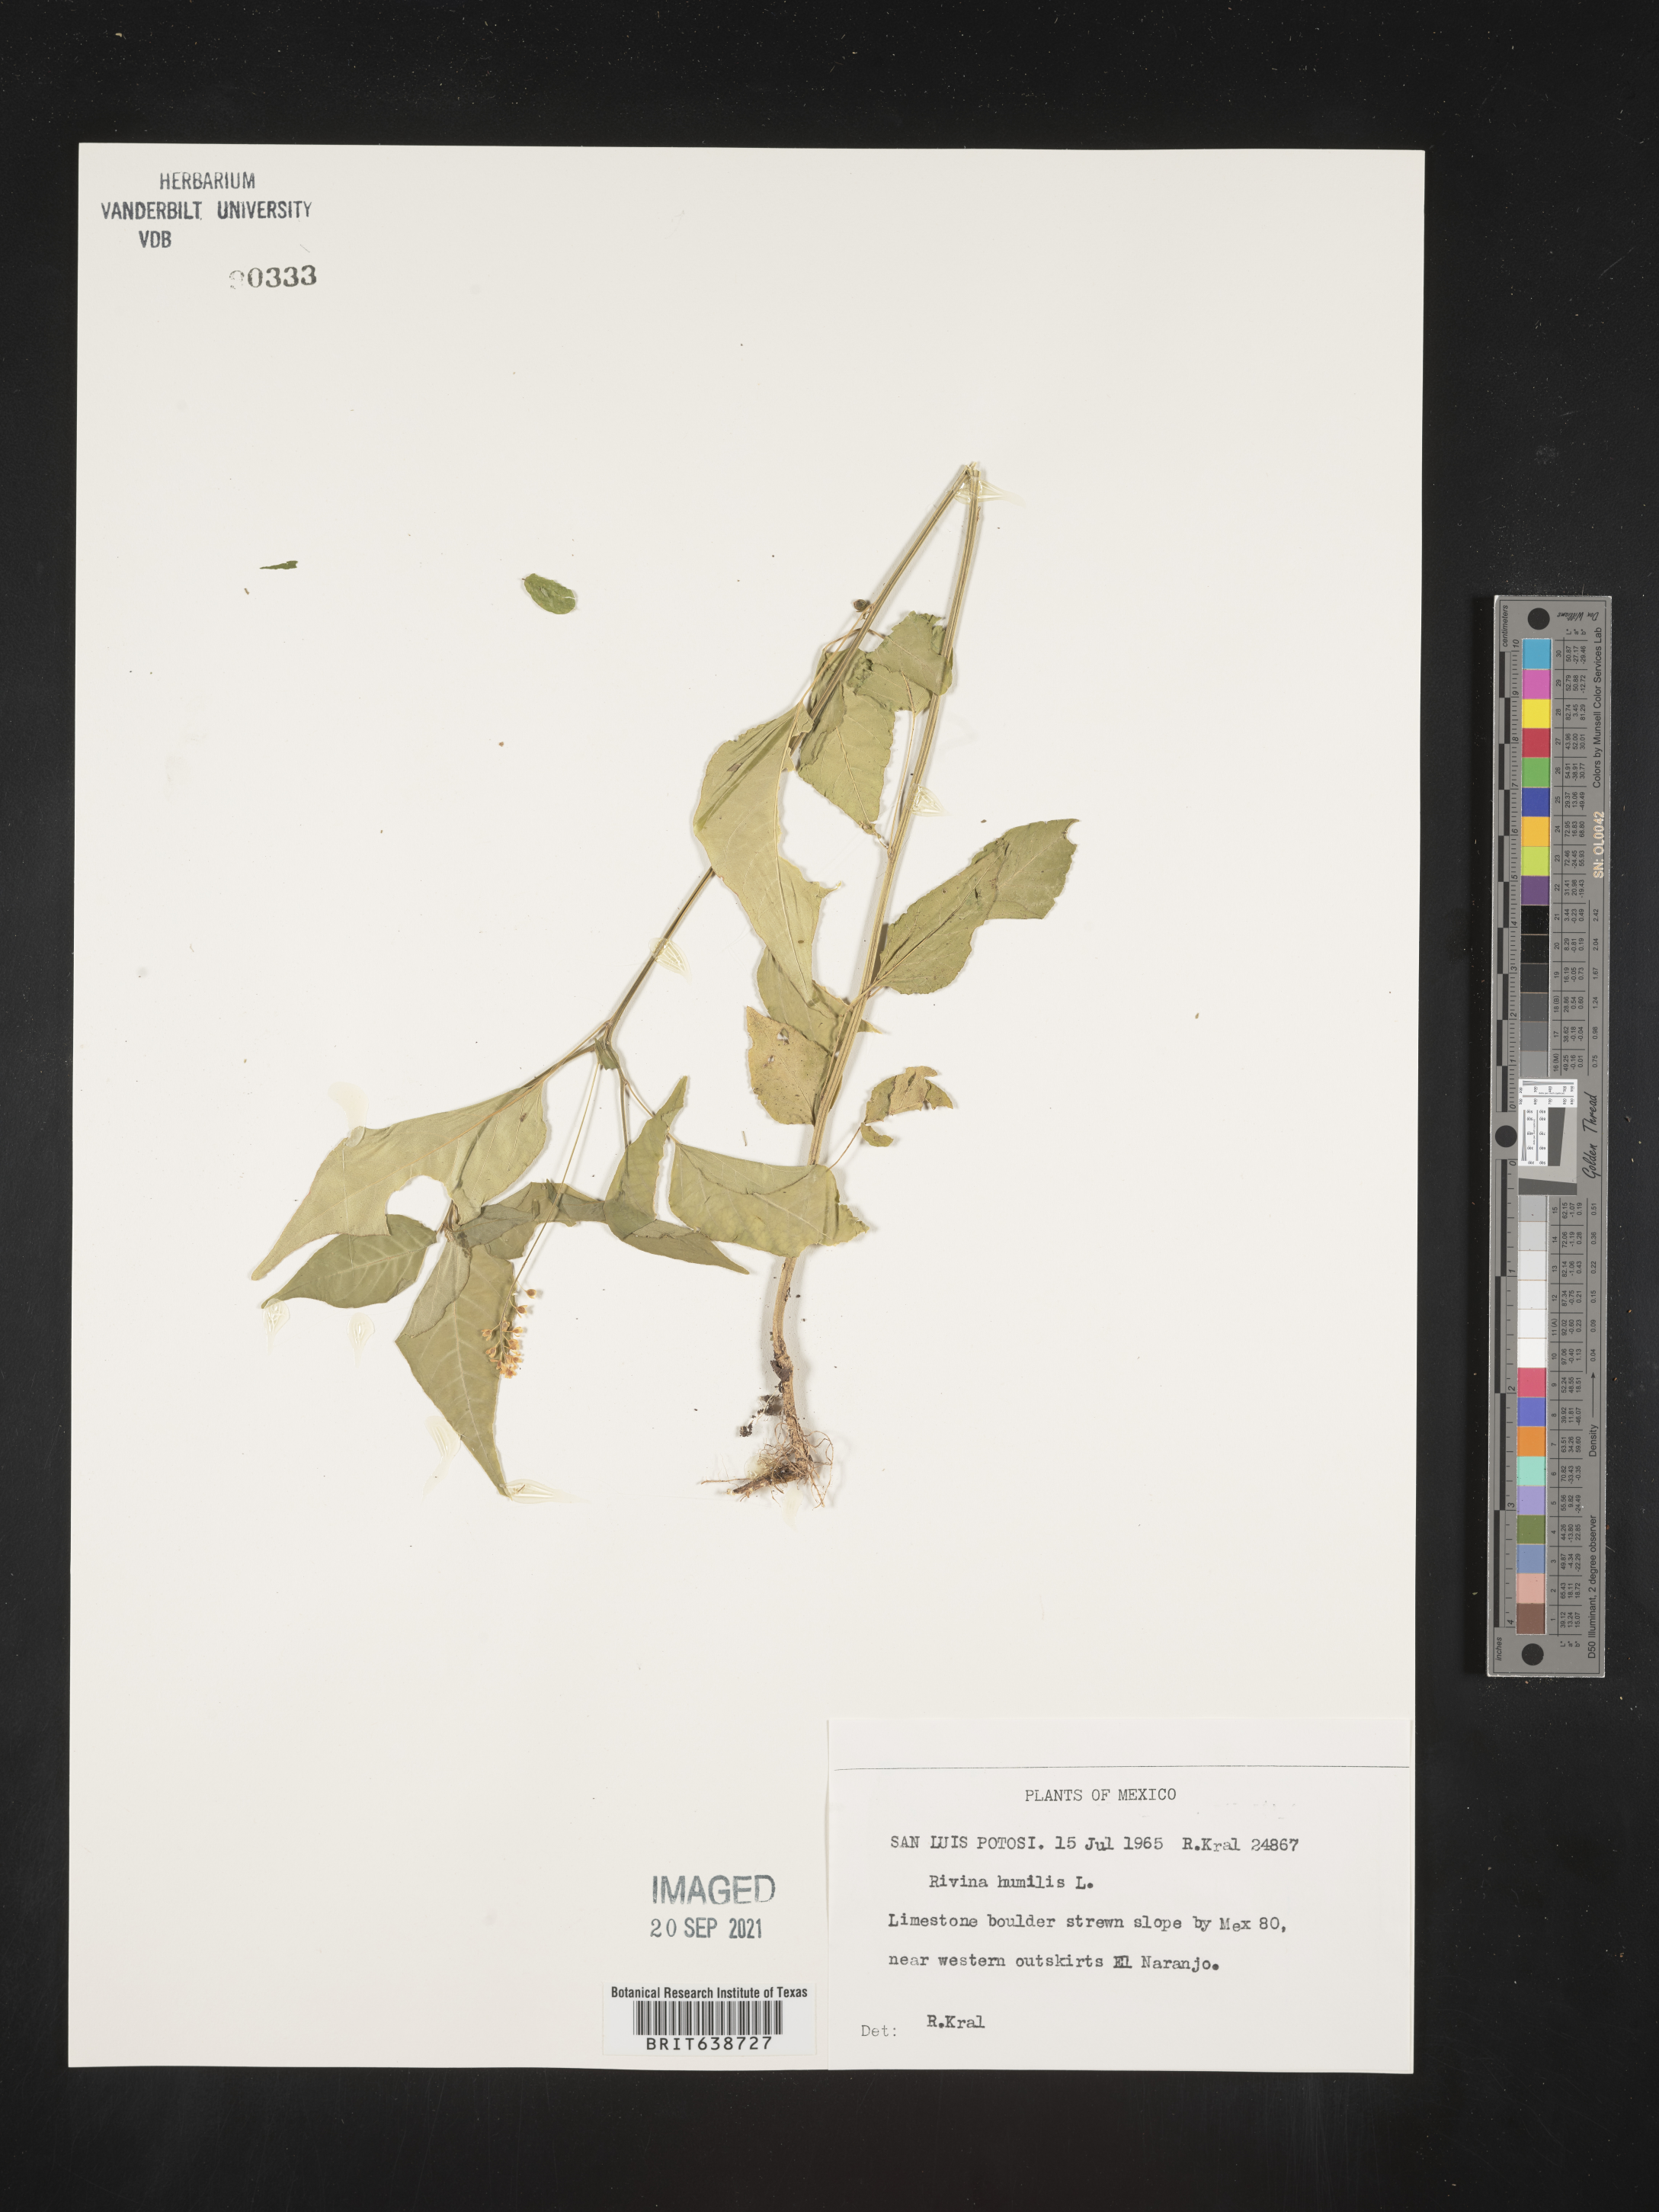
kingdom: Plantae
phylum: Tracheophyta
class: Magnoliopsida
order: Caryophyllales
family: Phytolaccaceae
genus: Rivina
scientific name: Rivina
